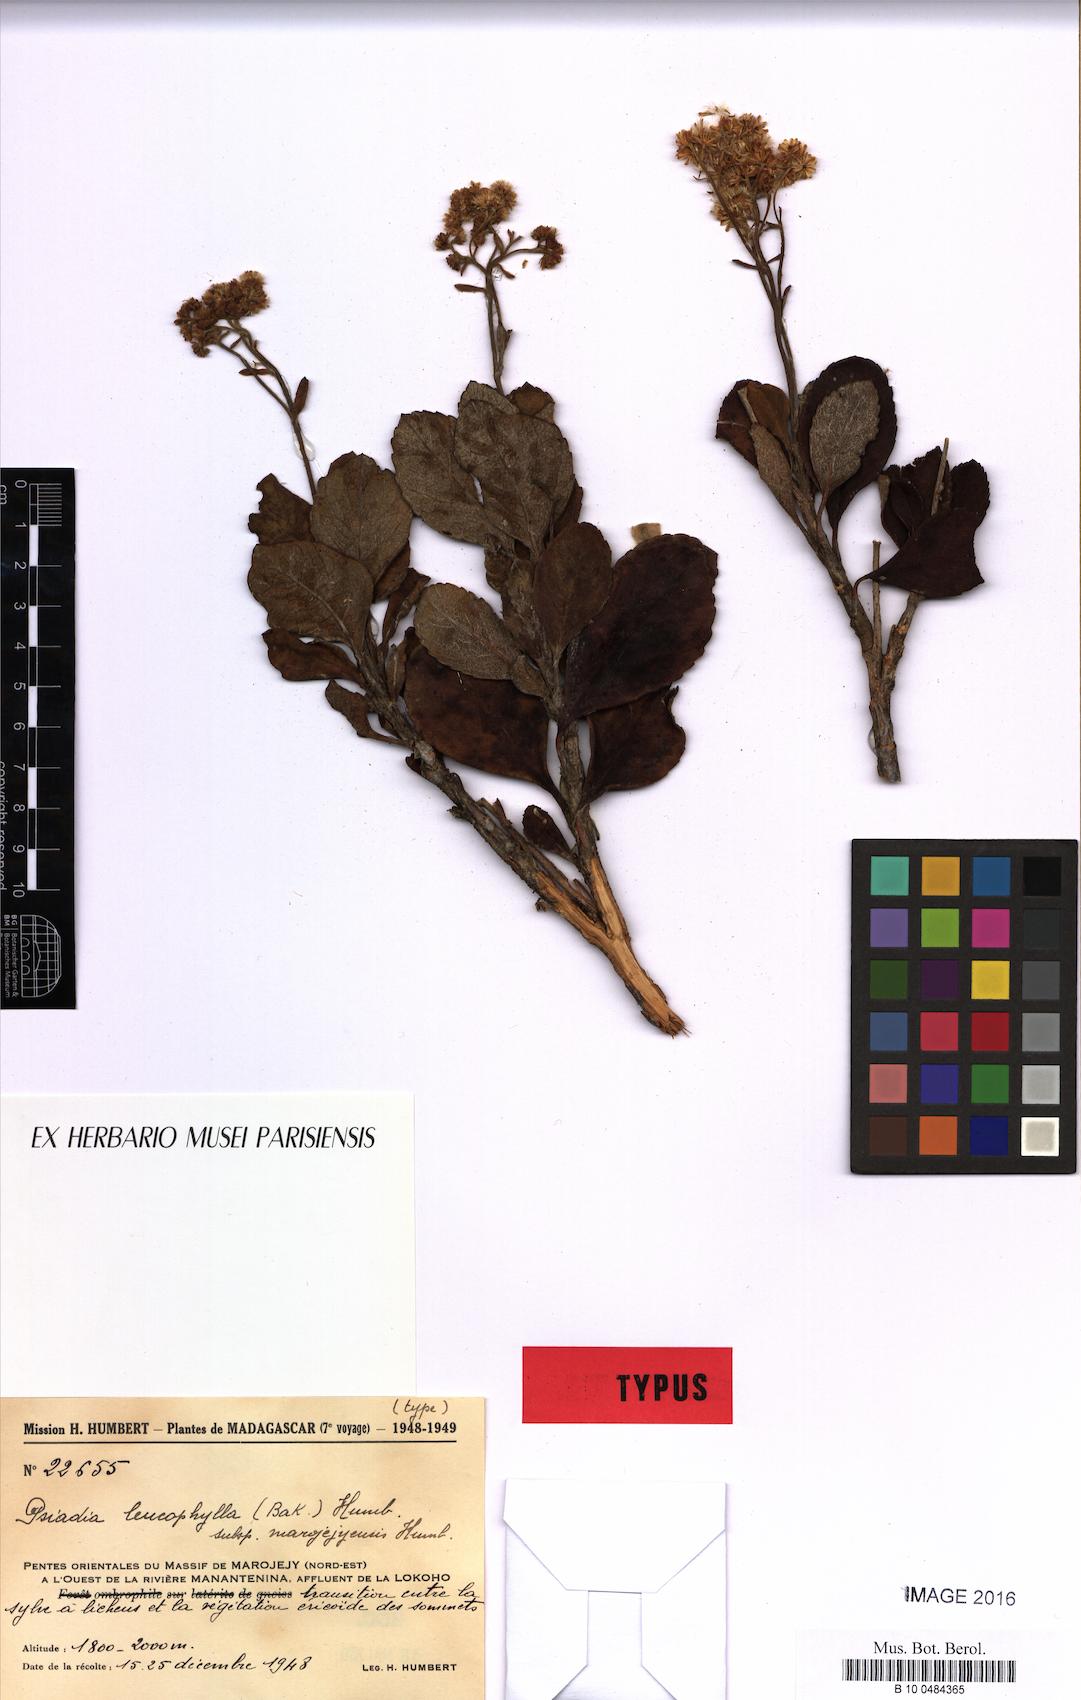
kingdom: Plantae
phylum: Tracheophyta
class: Magnoliopsida
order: Asterales
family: Asteraceae
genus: Psiadia
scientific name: Psiadia marojejyensis
